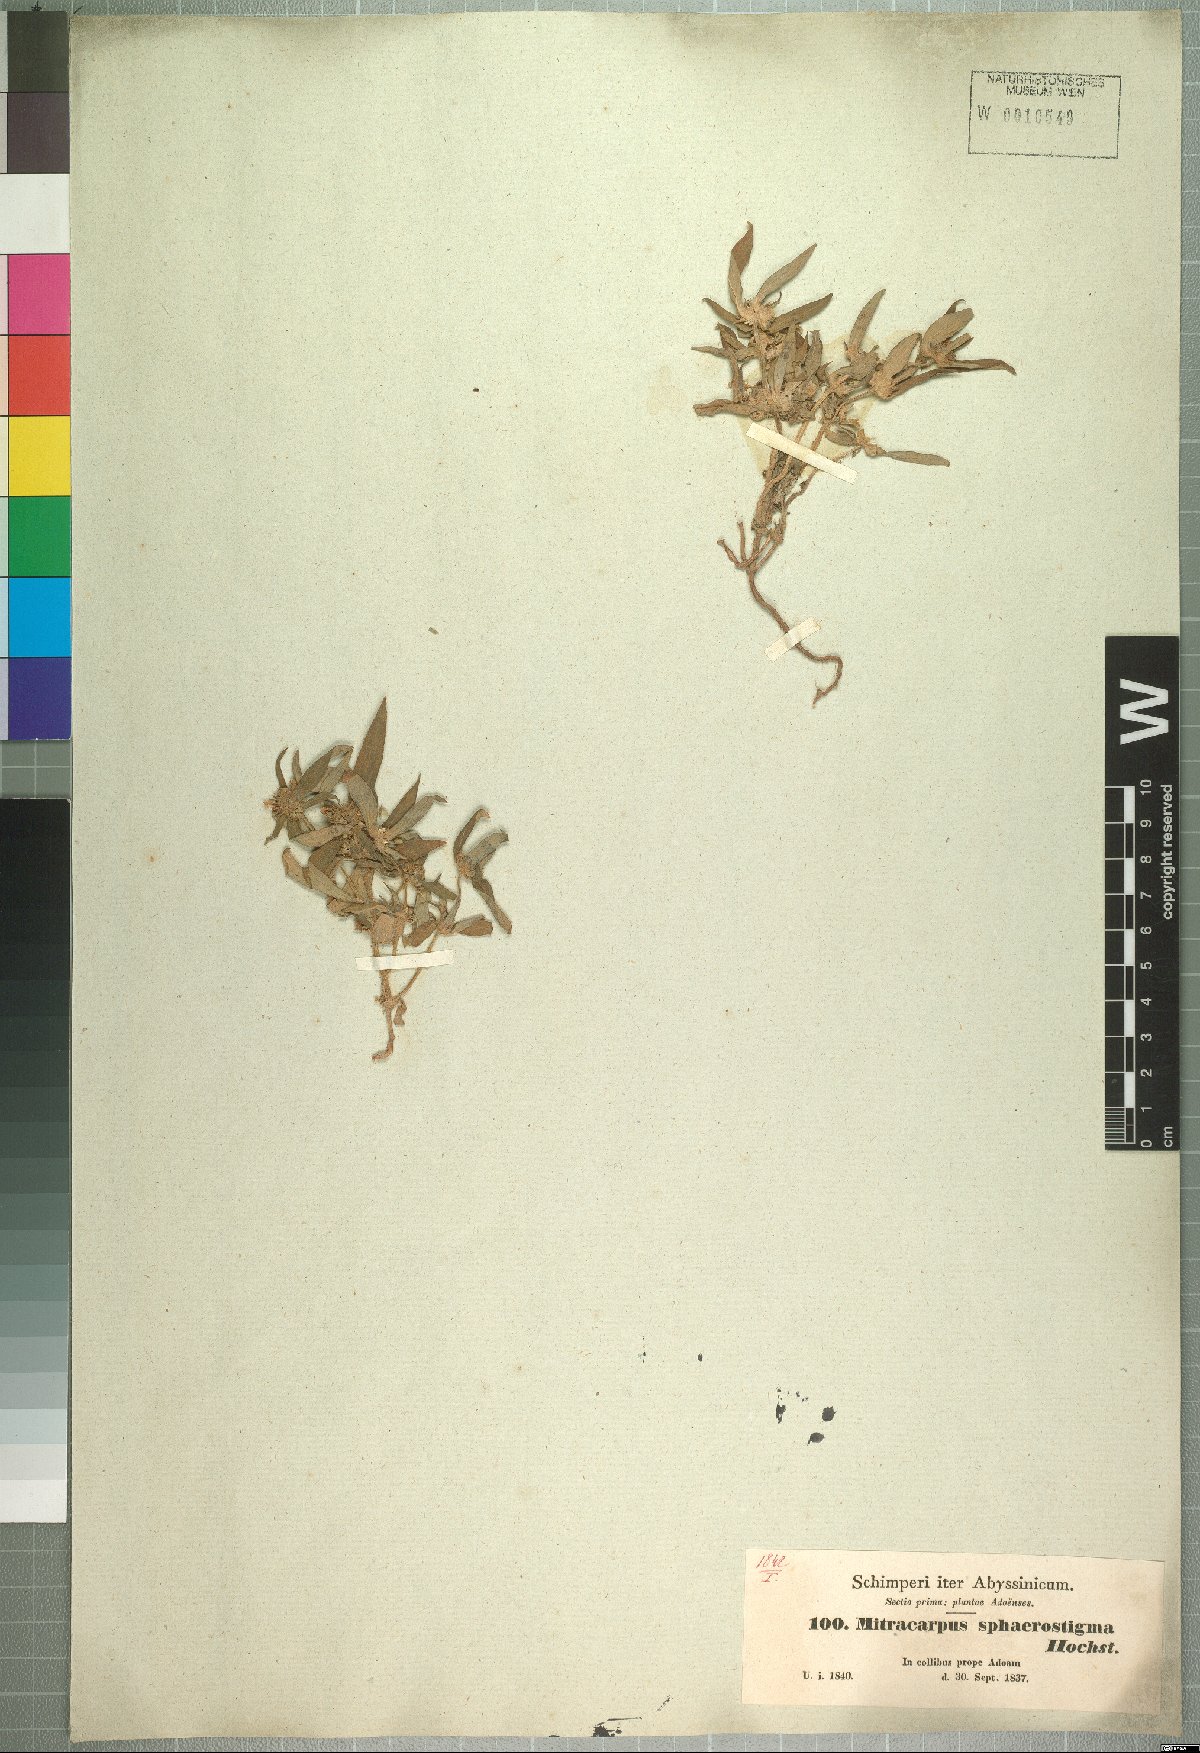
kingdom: Plantae
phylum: Tracheophyta
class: Magnoliopsida
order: Gentianales
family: Rubiaceae
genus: Spermacoce
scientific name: Spermacoce sphaerostigma
